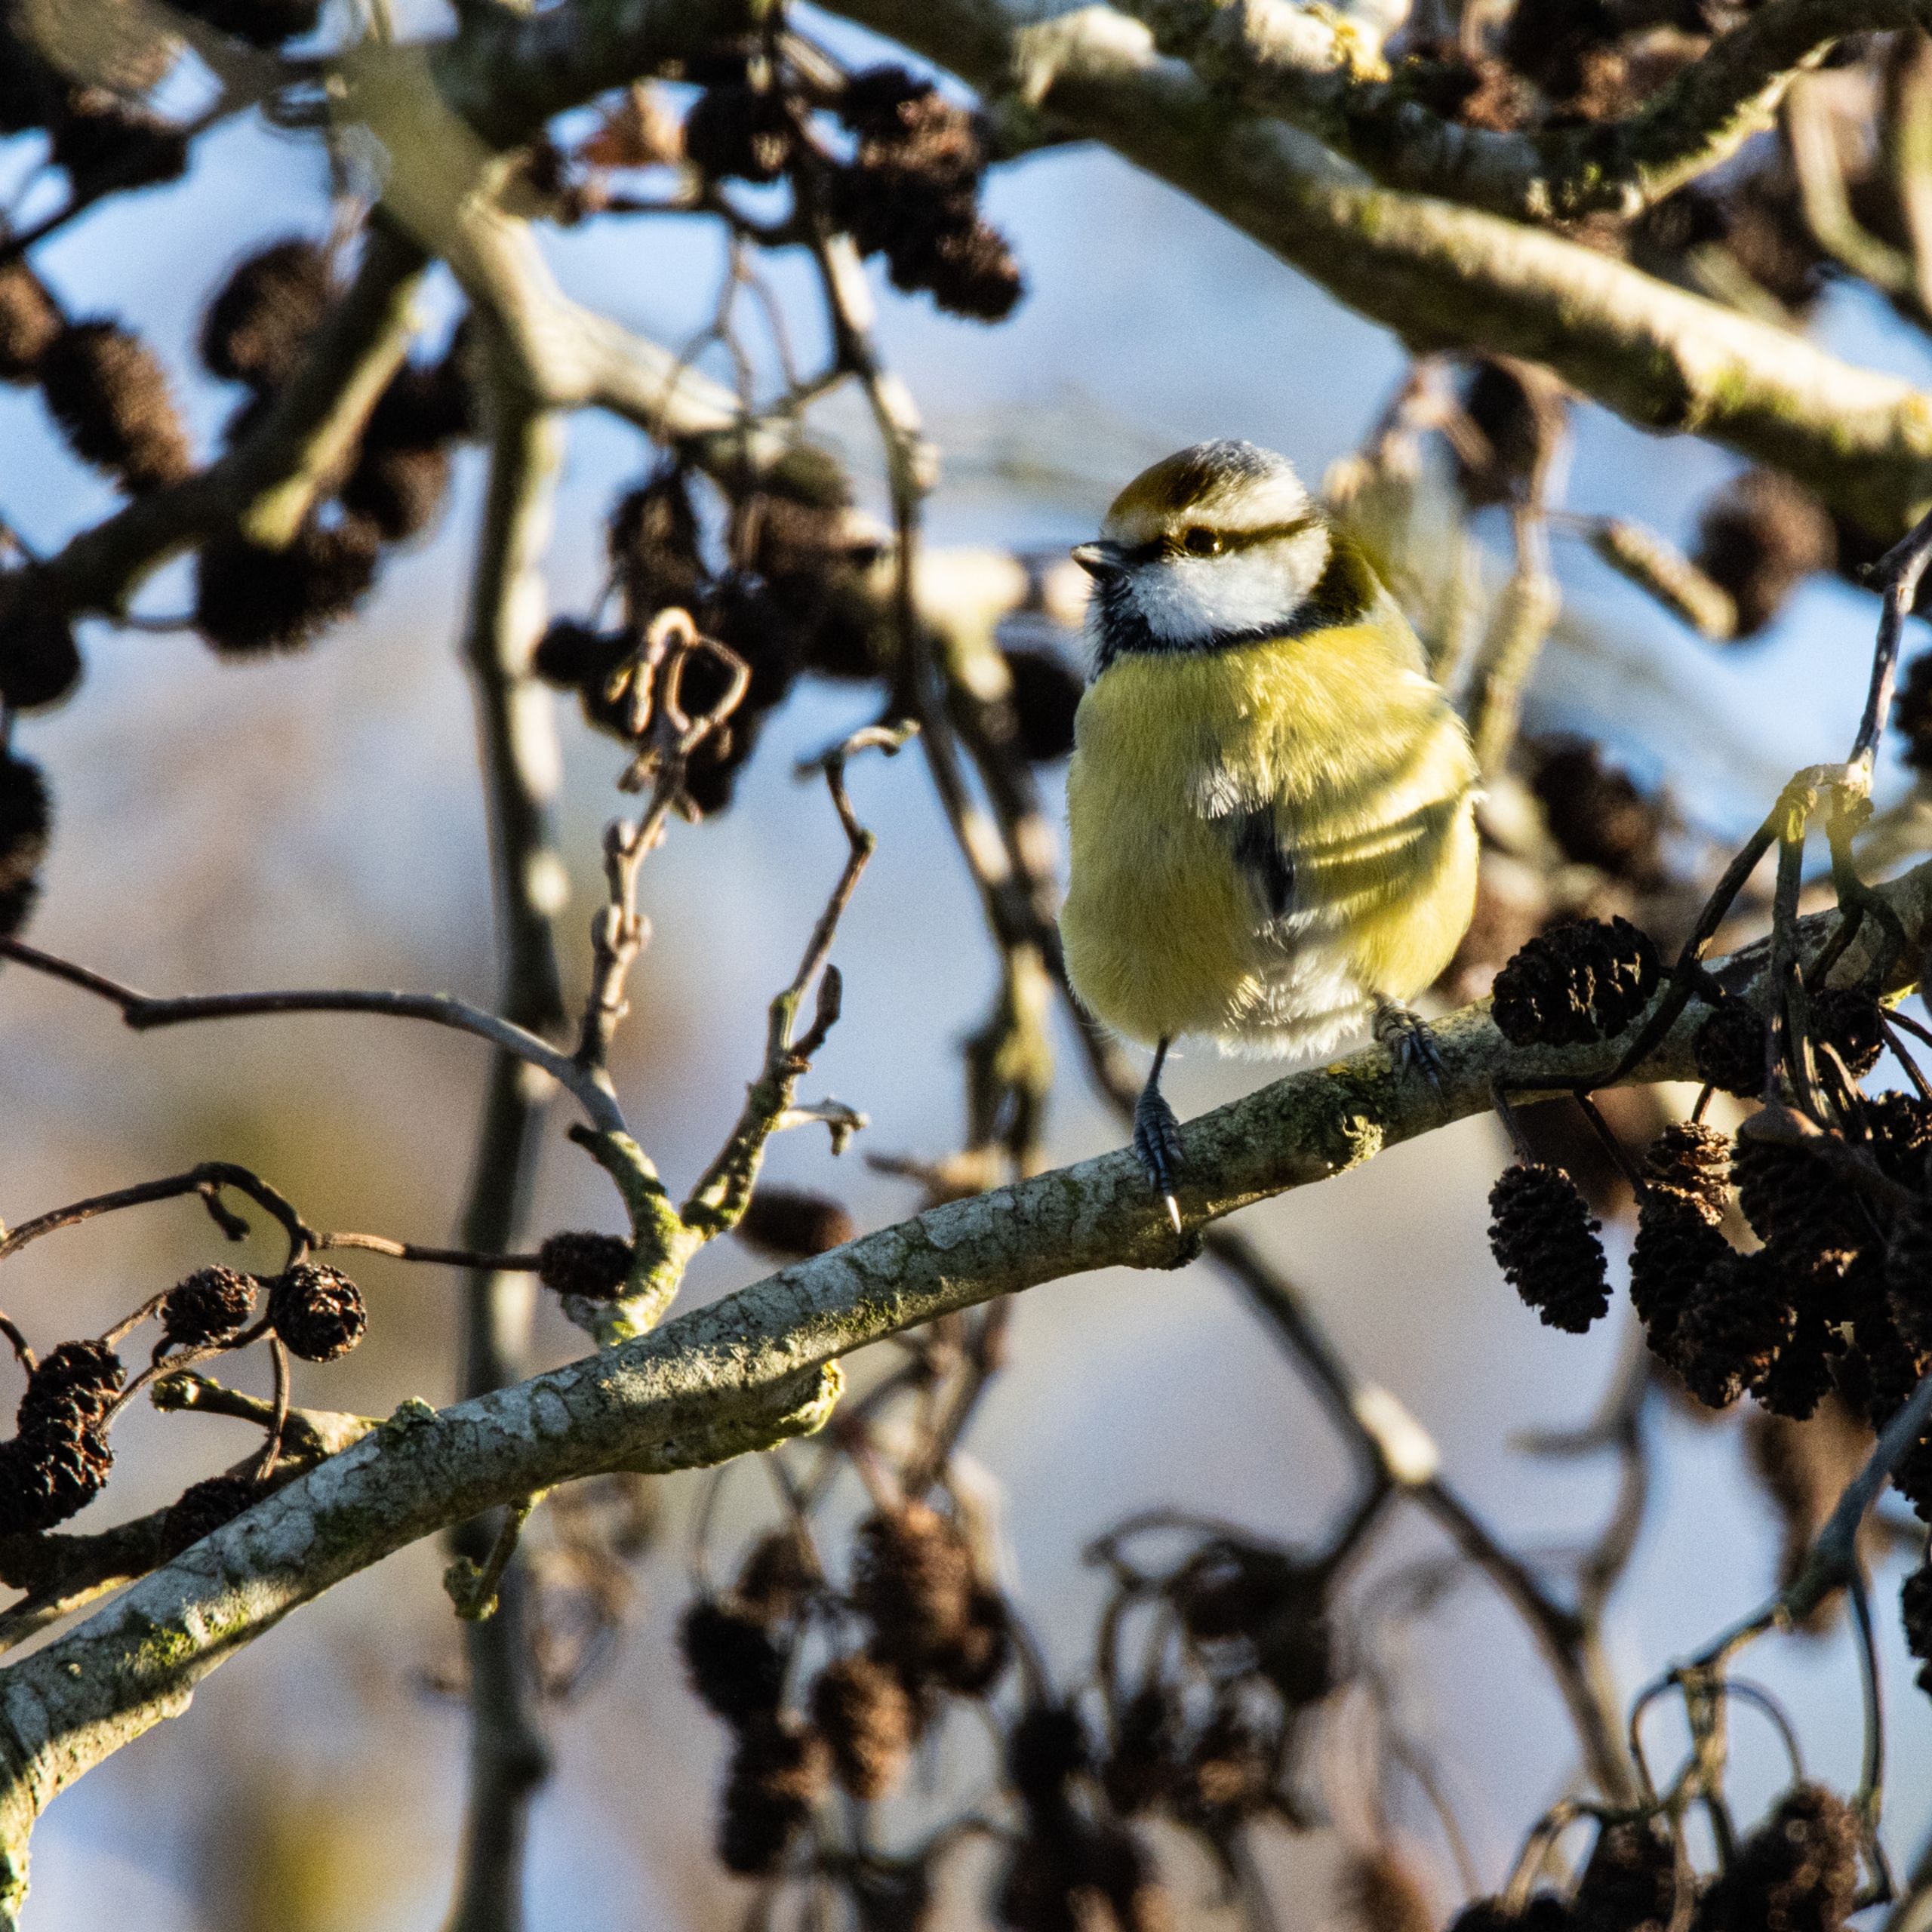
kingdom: Animalia
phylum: Chordata
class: Aves
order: Passeriformes
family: Paridae
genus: Cyanistes
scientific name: Cyanistes caeruleus
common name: Blåmejse
